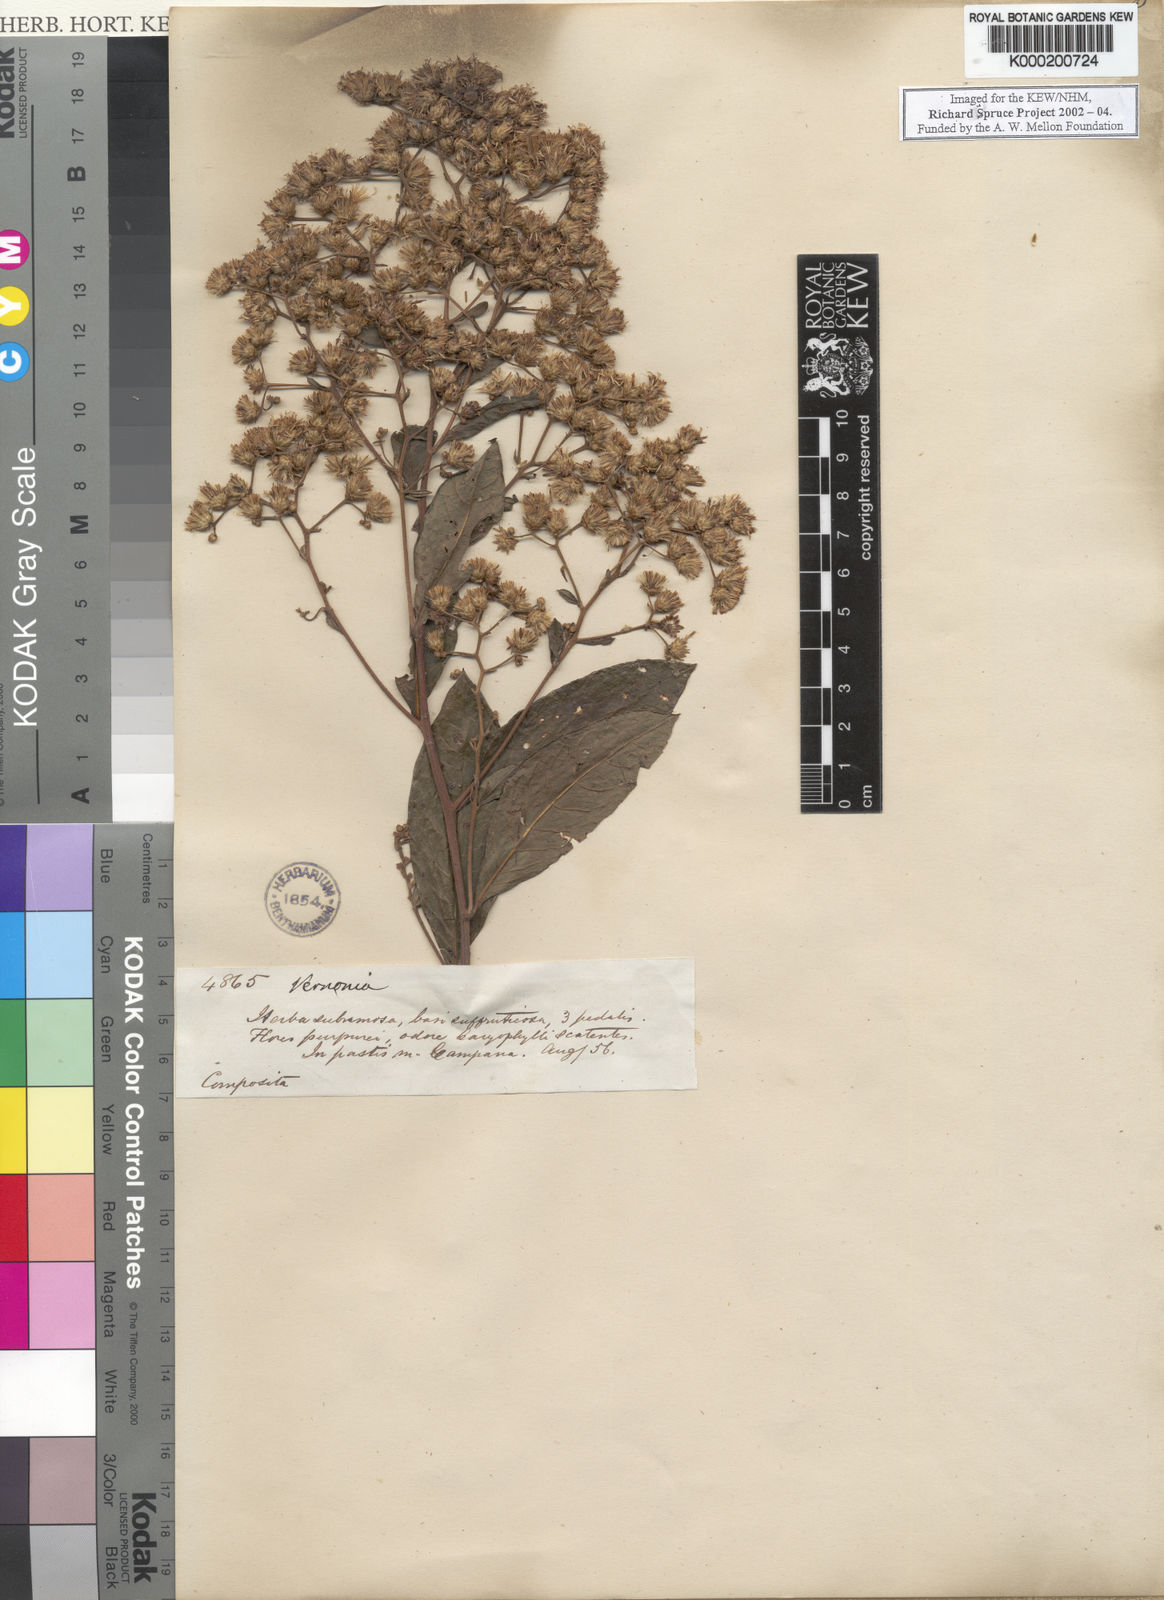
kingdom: Plantae
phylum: Tracheophyta
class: Magnoliopsida
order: Asterales
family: Asteraceae
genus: Vernonia
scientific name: Vernonia
